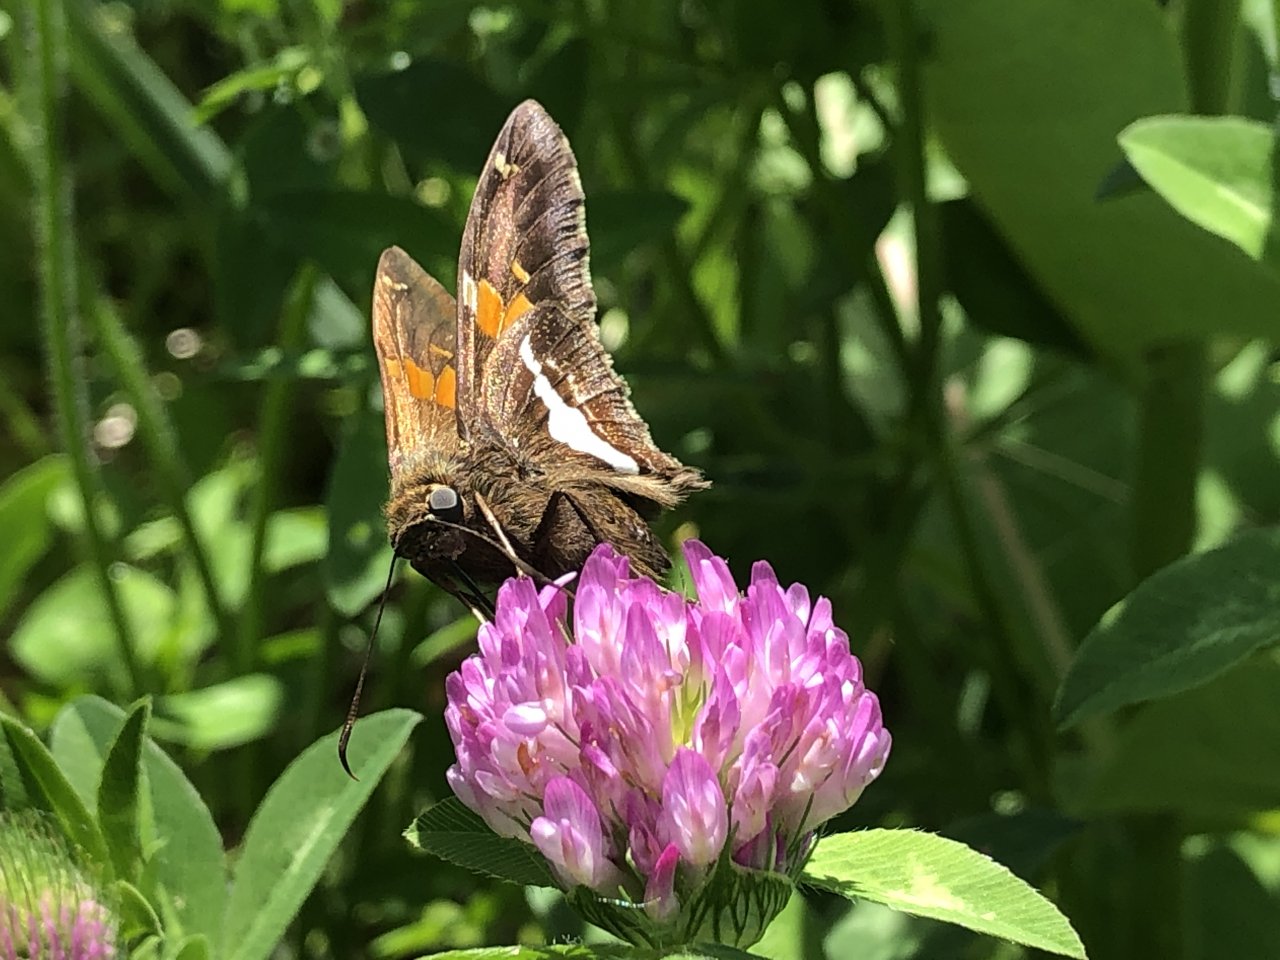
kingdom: Animalia
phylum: Arthropoda
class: Insecta
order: Lepidoptera
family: Hesperiidae
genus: Epargyreus
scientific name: Epargyreus clarus
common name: Silver-spotted Skipper
